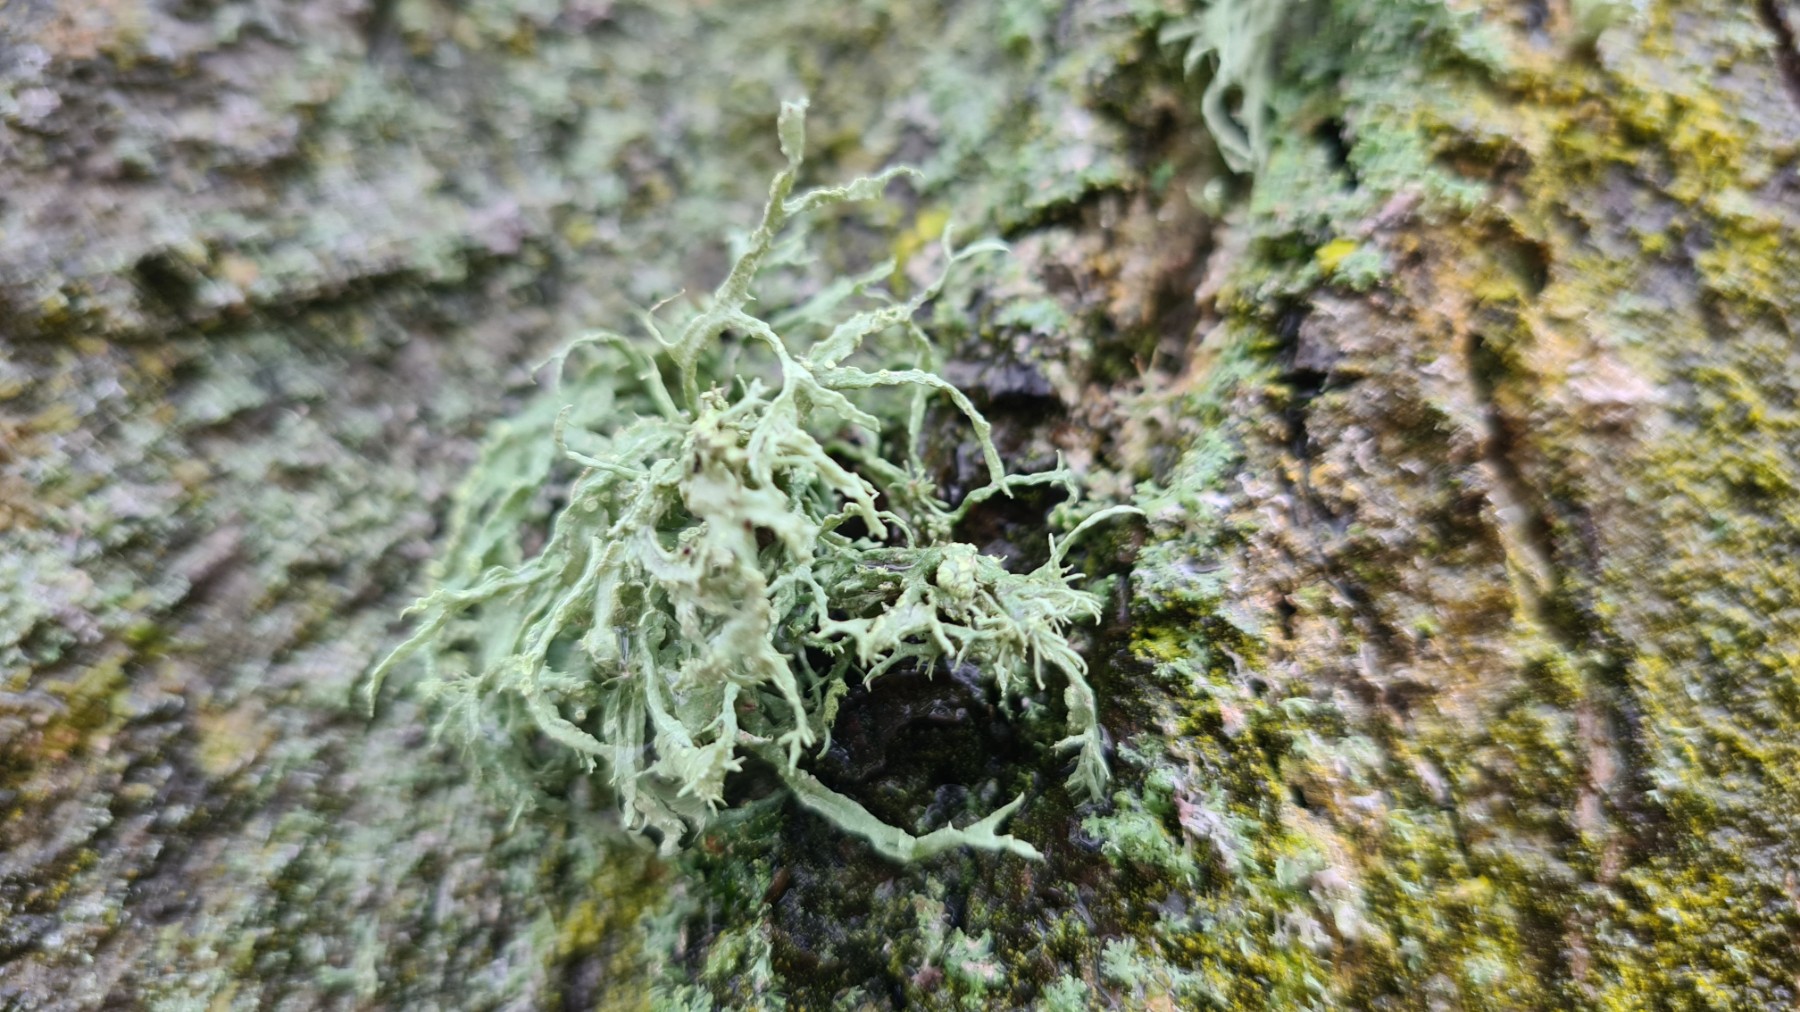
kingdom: Fungi
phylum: Ascomycota
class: Lecanoromycetes
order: Lecanorales
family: Ramalinaceae
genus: Ramalina
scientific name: Ramalina farinacea
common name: melet grenlav
